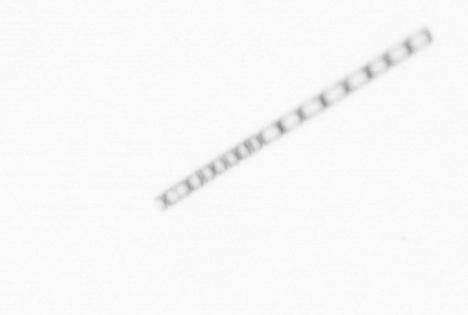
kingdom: Chromista
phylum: Ochrophyta
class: Bacillariophyceae
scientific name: Bacillariophyceae
